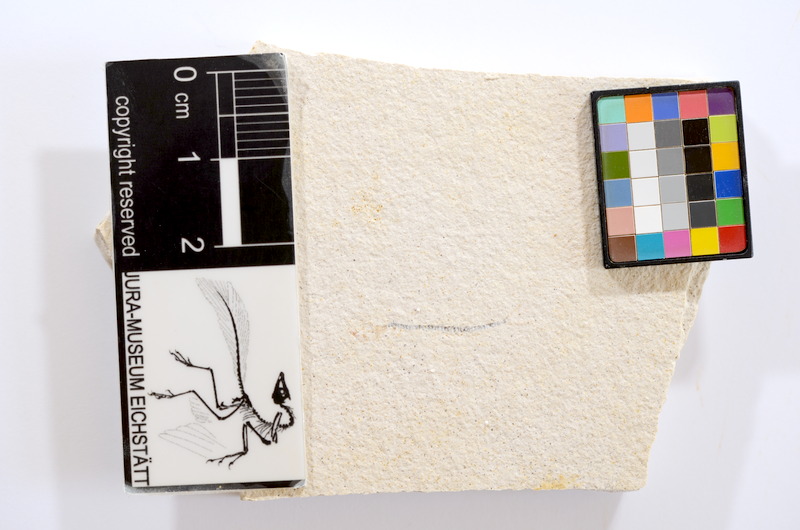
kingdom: Animalia
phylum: Chordata
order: Salmoniformes
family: Orthogonikleithridae
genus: Orthogonikleithrus
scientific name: Orthogonikleithrus hoelli
